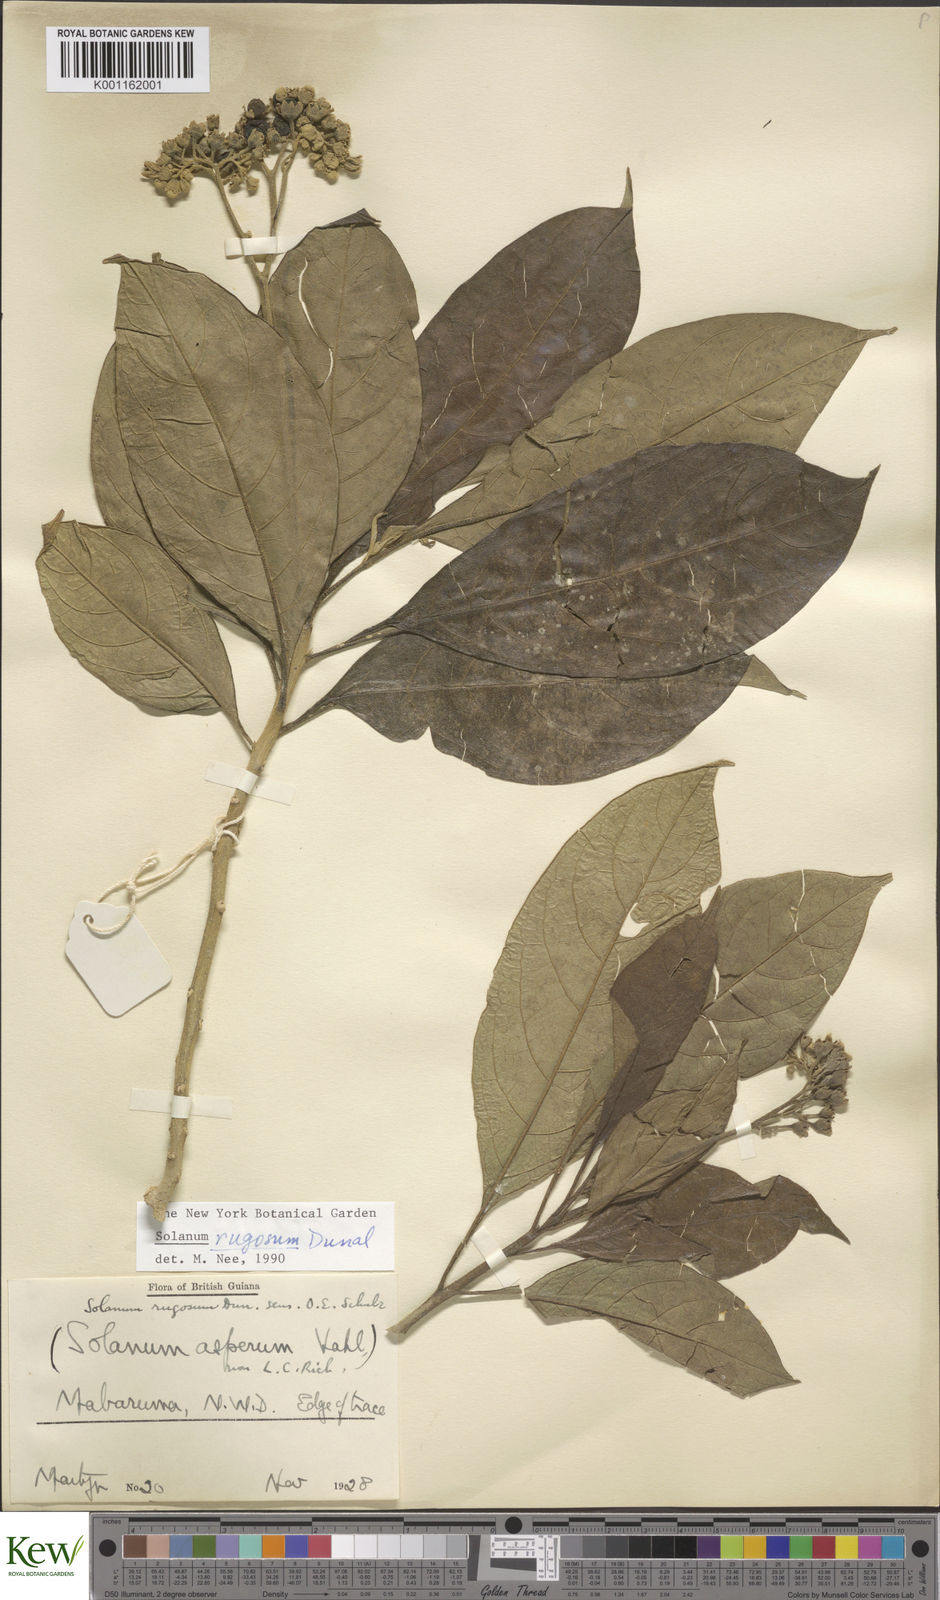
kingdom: Plantae
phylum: Tracheophyta
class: Magnoliopsida
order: Solanales
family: Solanaceae
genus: Solanum
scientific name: Solanum rugosum
